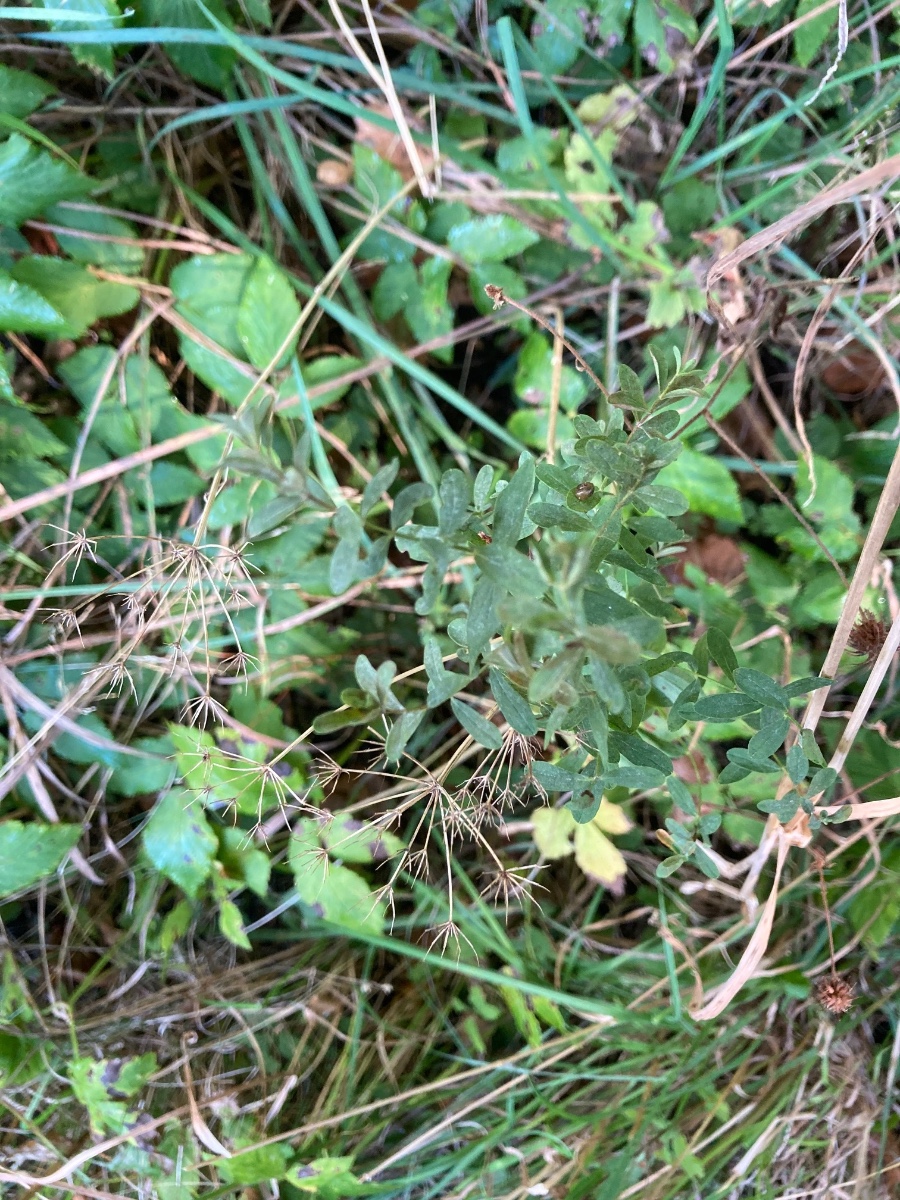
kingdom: Fungi
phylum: Ascomycota
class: Leotiomycetes
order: Helotiales
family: Erysiphaceae
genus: Erysiphe
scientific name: Erysiphe hyperici
